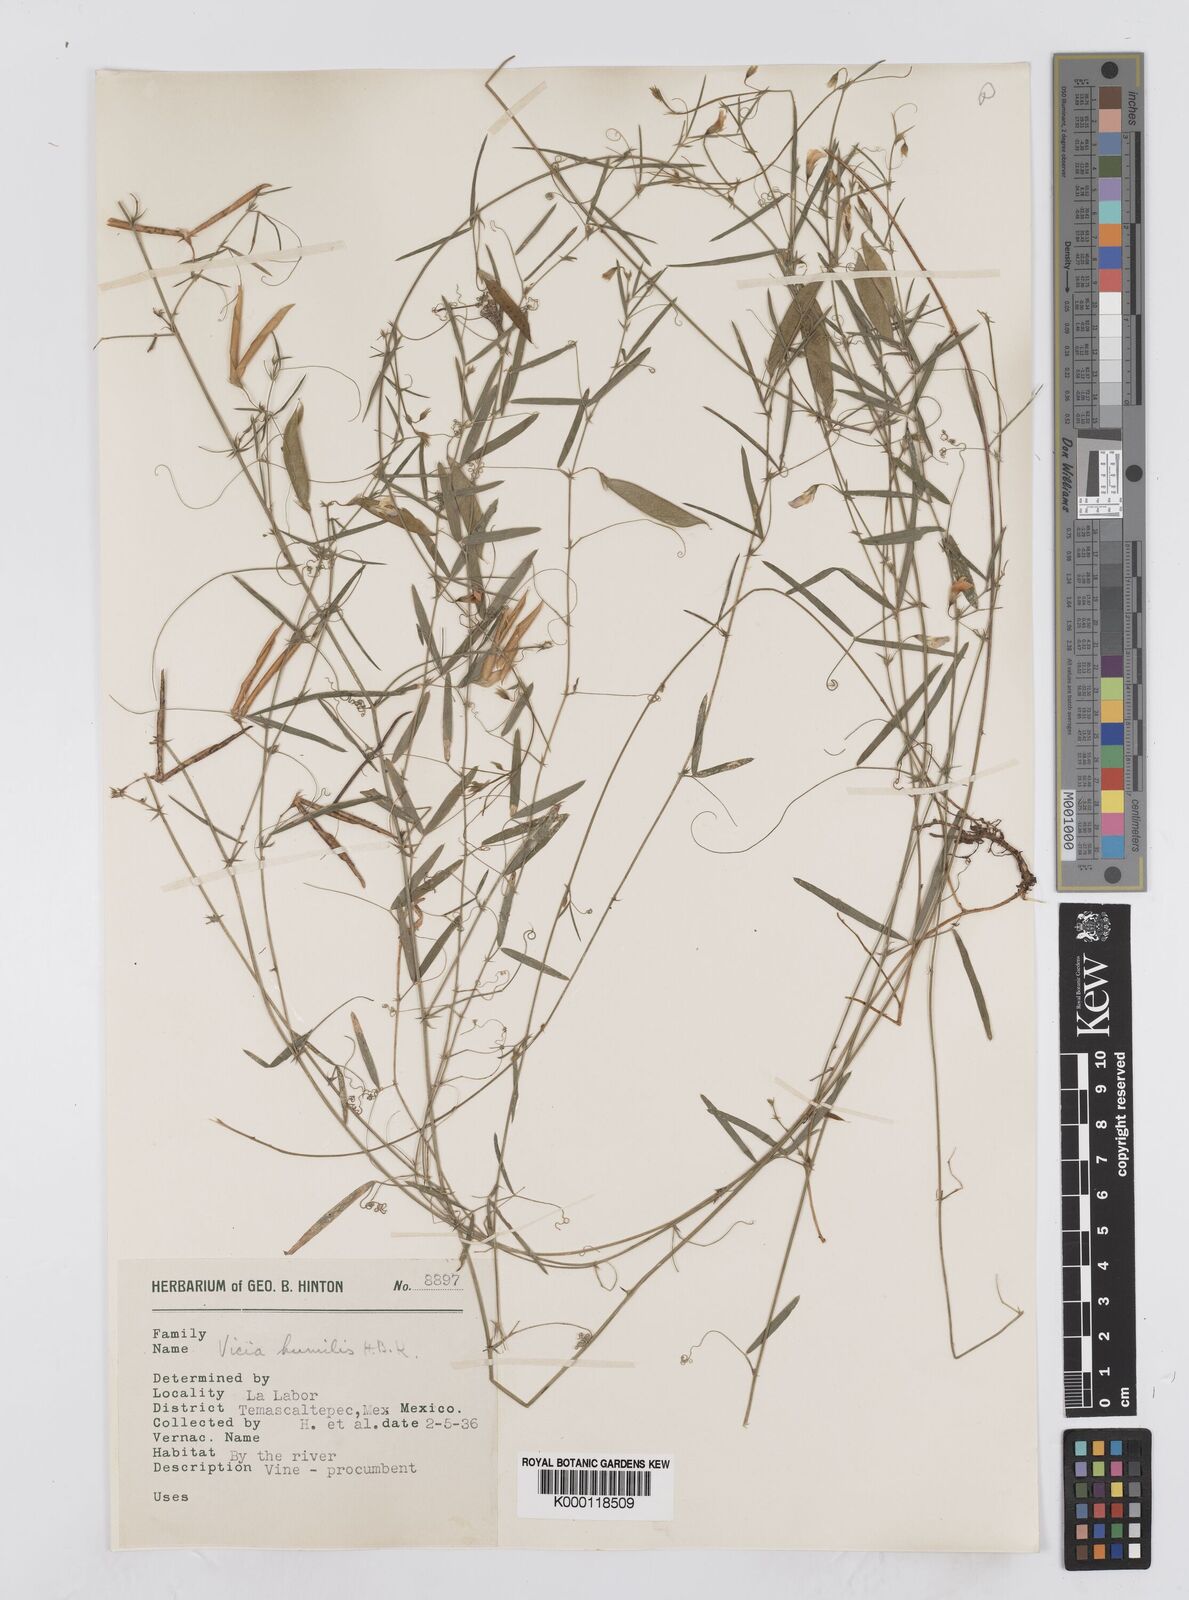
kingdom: Plantae
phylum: Tracheophyta
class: Magnoliopsida
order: Fabales
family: Fabaceae
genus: Vicia
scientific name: Vicia humilis
